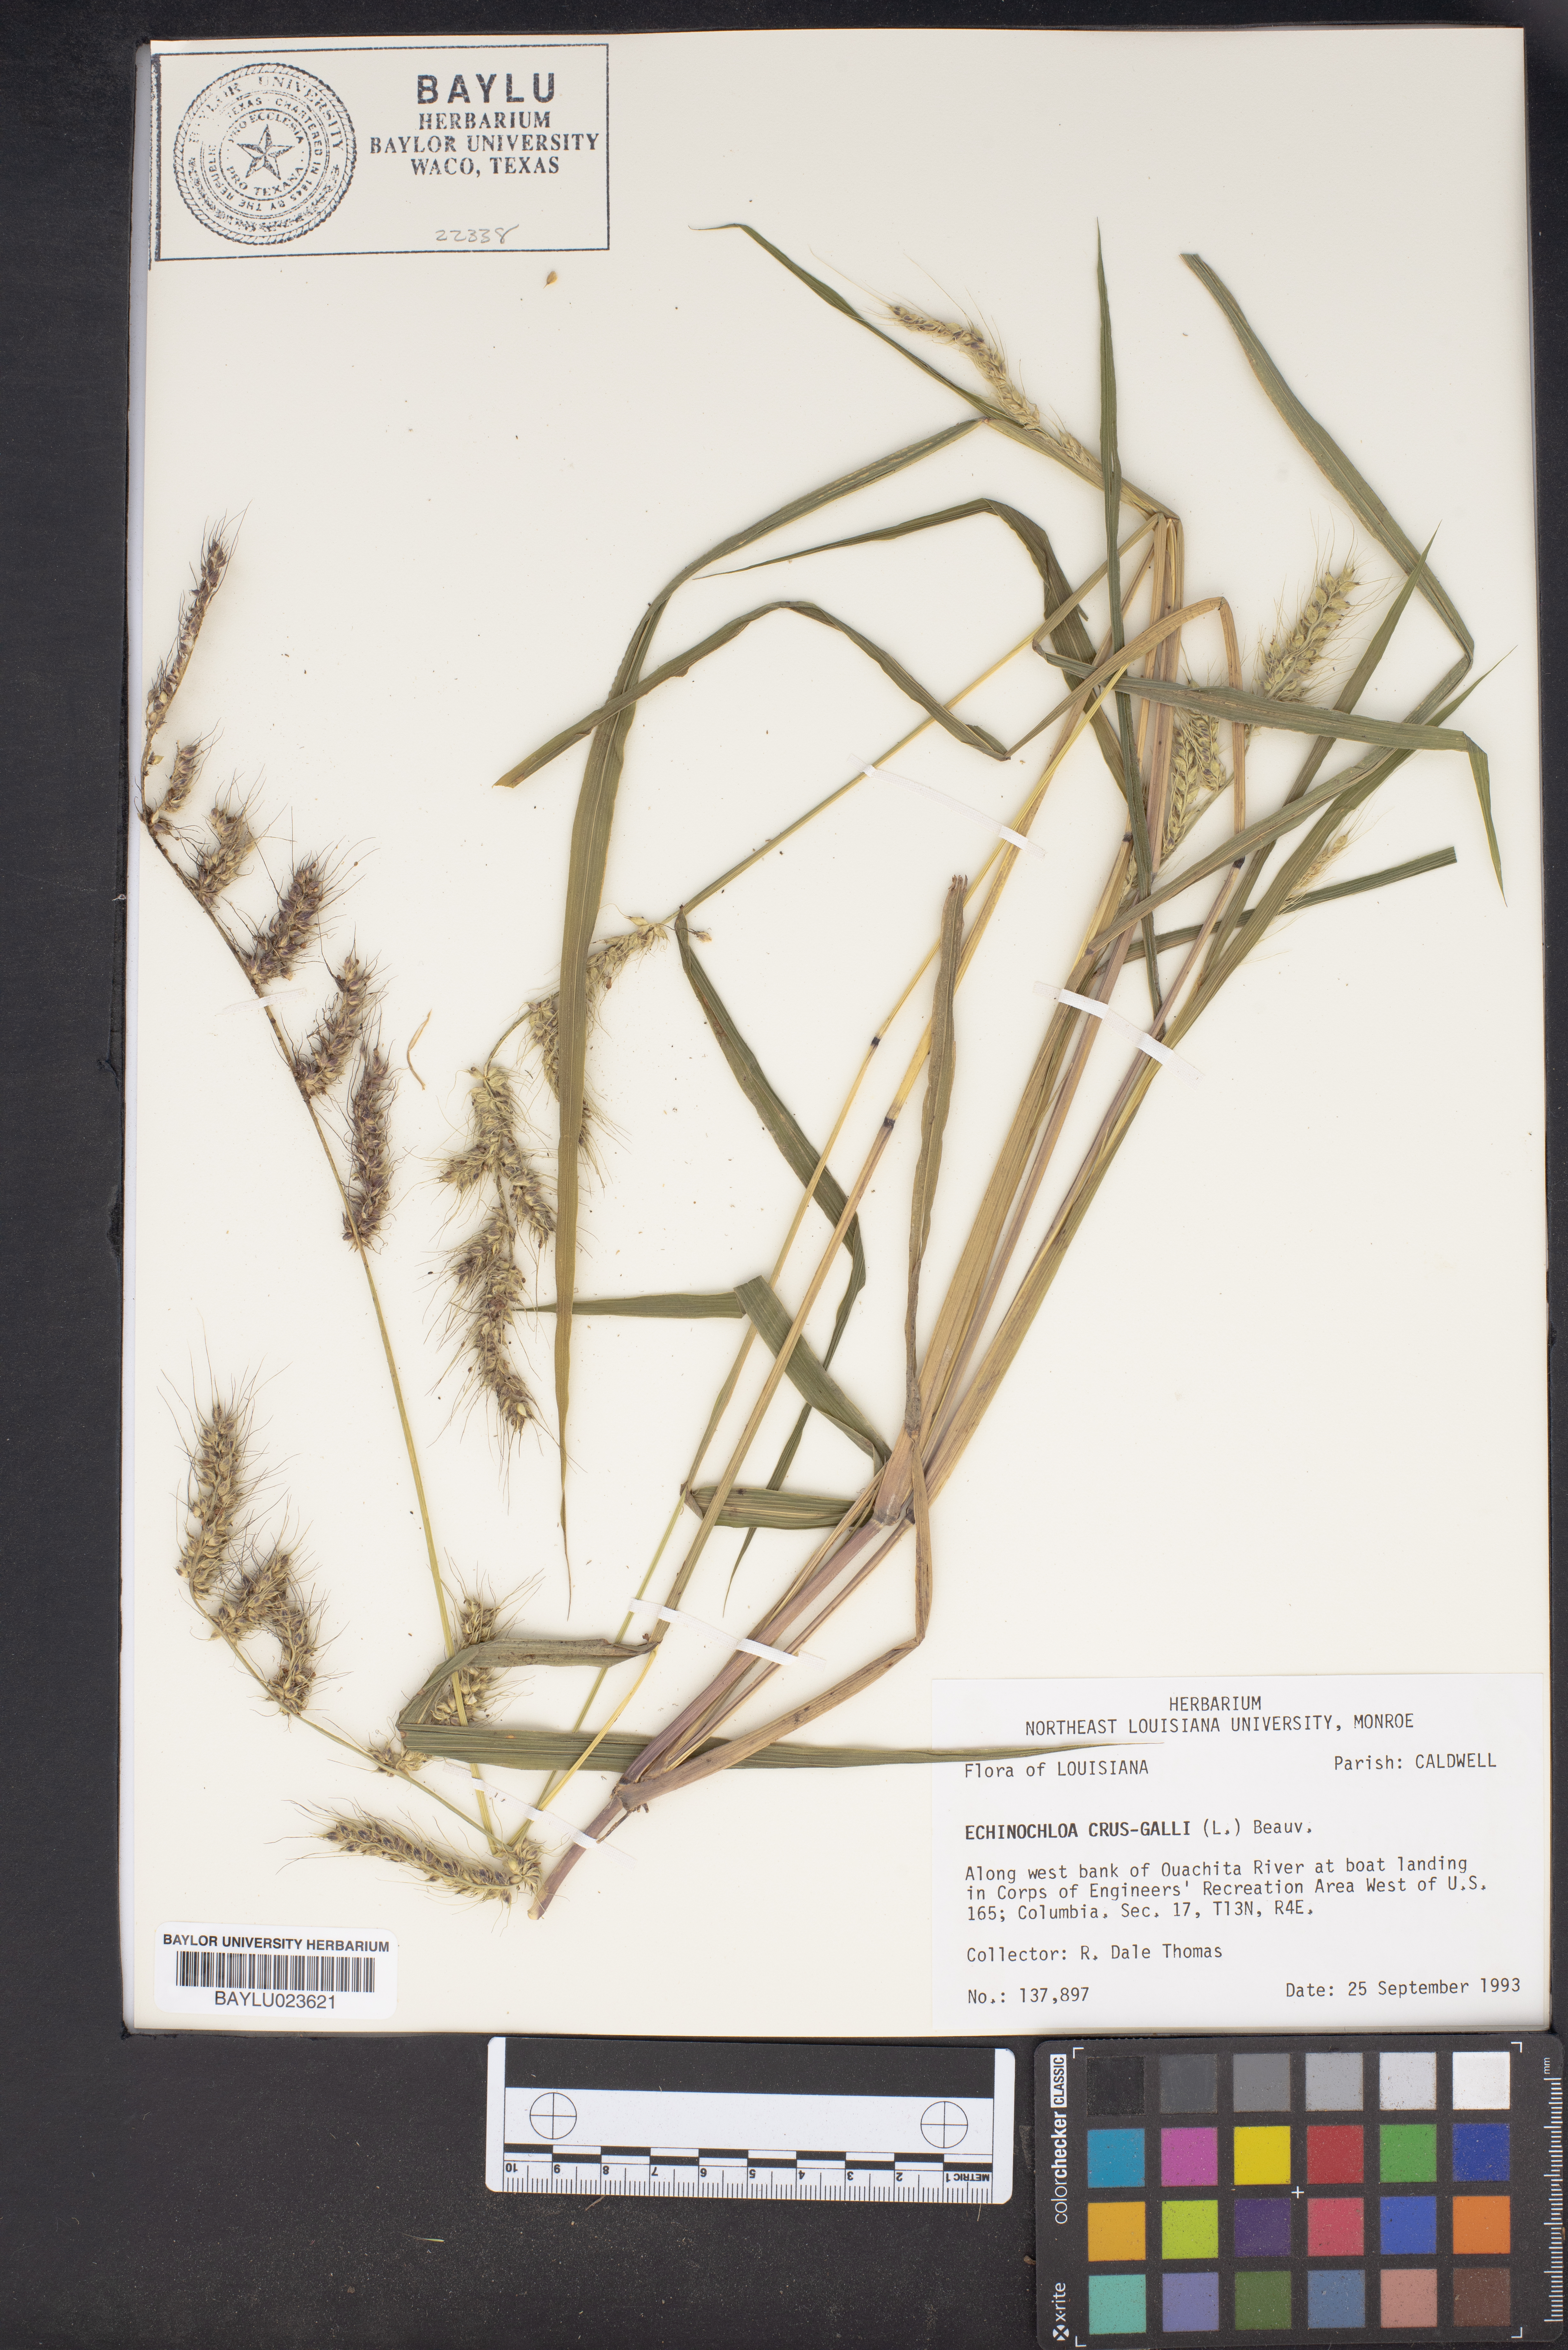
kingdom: Plantae
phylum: Tracheophyta
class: Liliopsida
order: Poales
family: Poaceae
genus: Echinochloa
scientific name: Echinochloa crus-galli
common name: Cockspur
